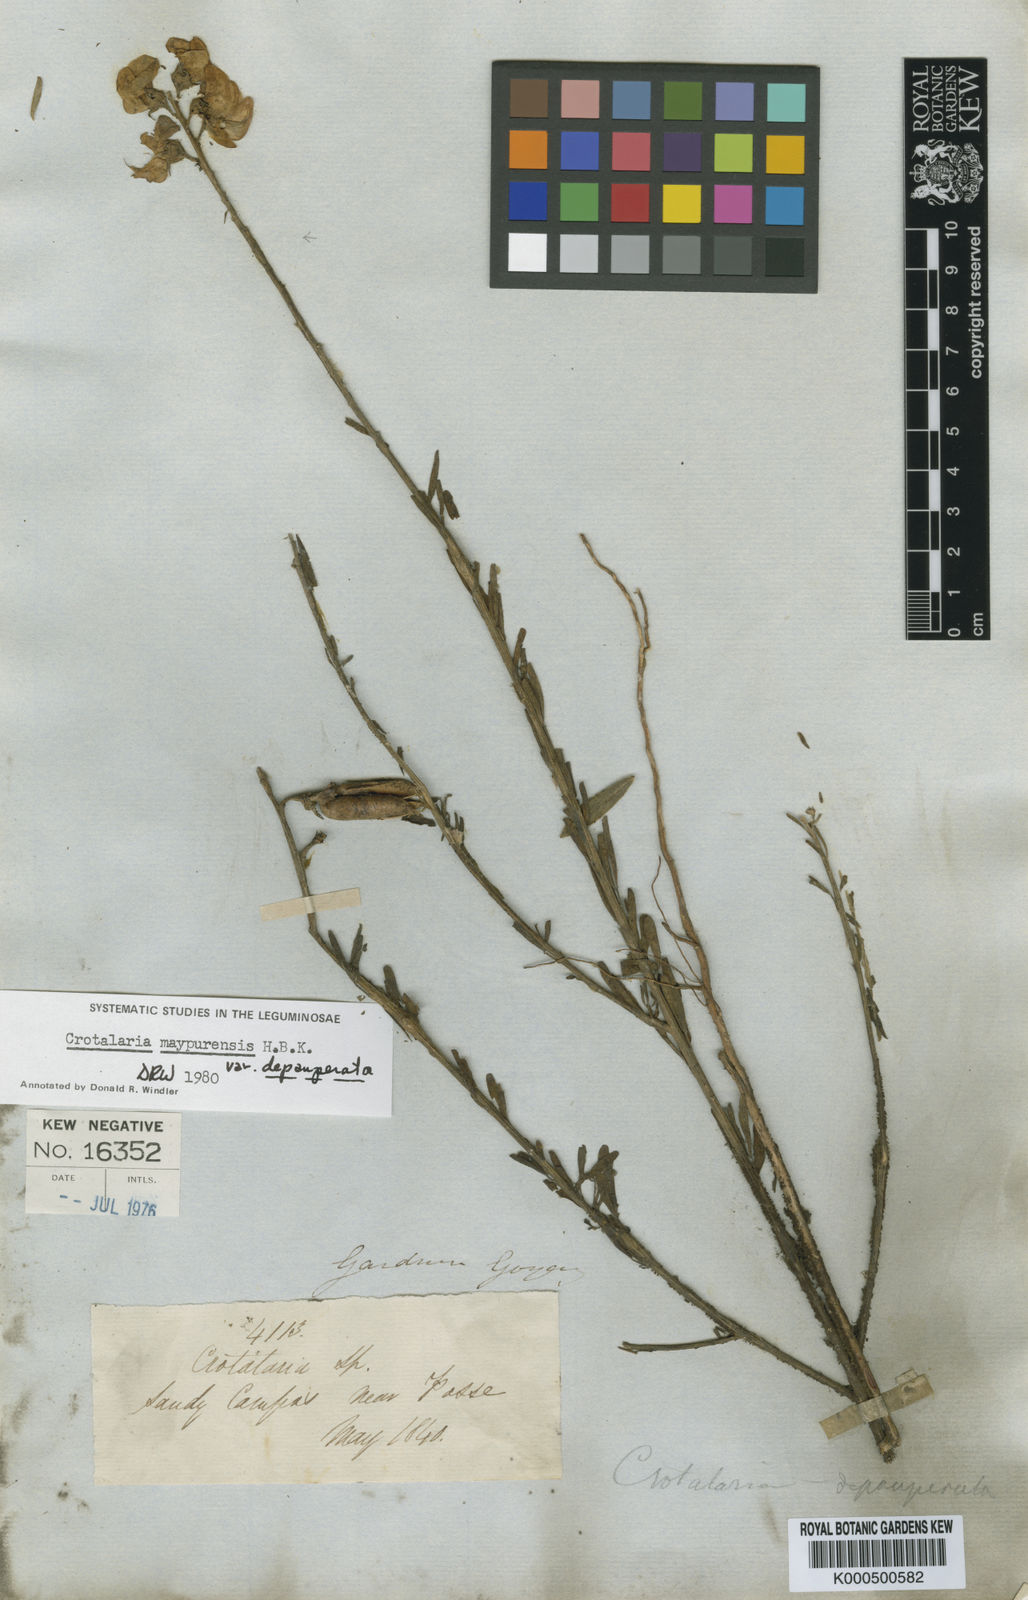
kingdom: Plantae
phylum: Tracheophyta
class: Magnoliopsida
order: Fabales
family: Fabaceae
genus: Crotalaria
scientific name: Crotalaria
